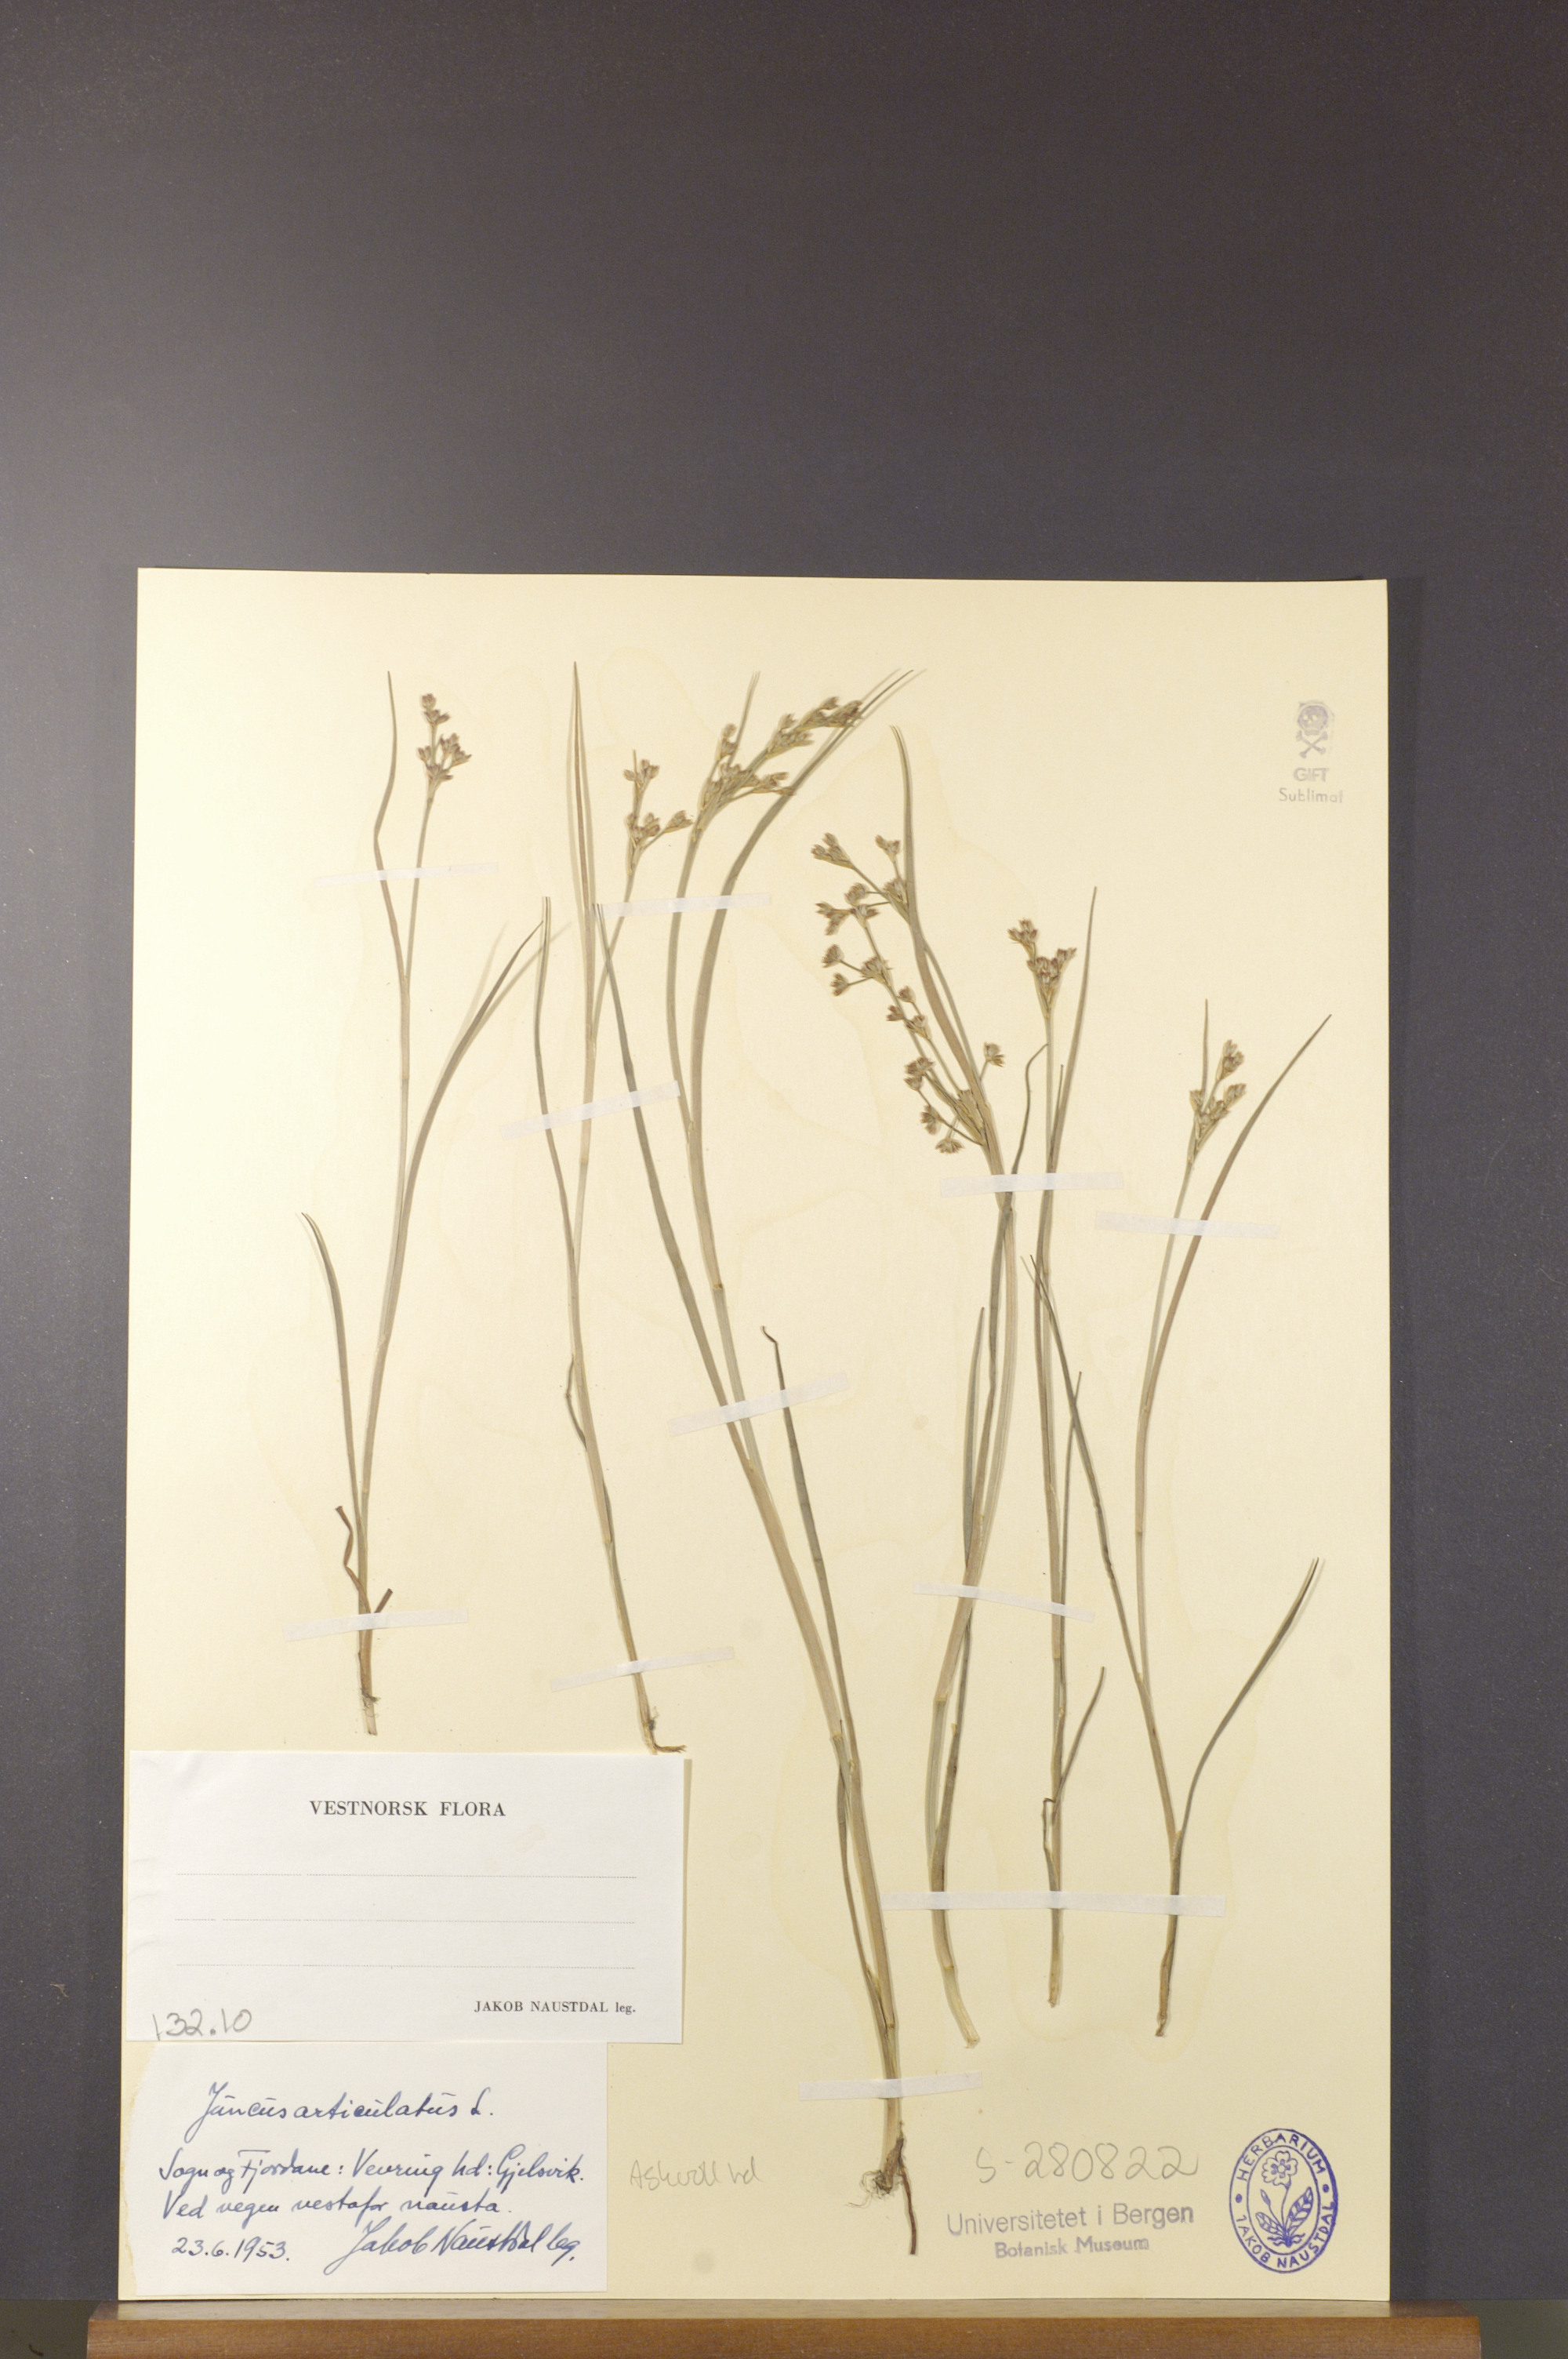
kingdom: Plantae
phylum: Tracheophyta
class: Liliopsida
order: Poales
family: Juncaceae
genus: Juncus
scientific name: Juncus articulatus
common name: Jointed rush
